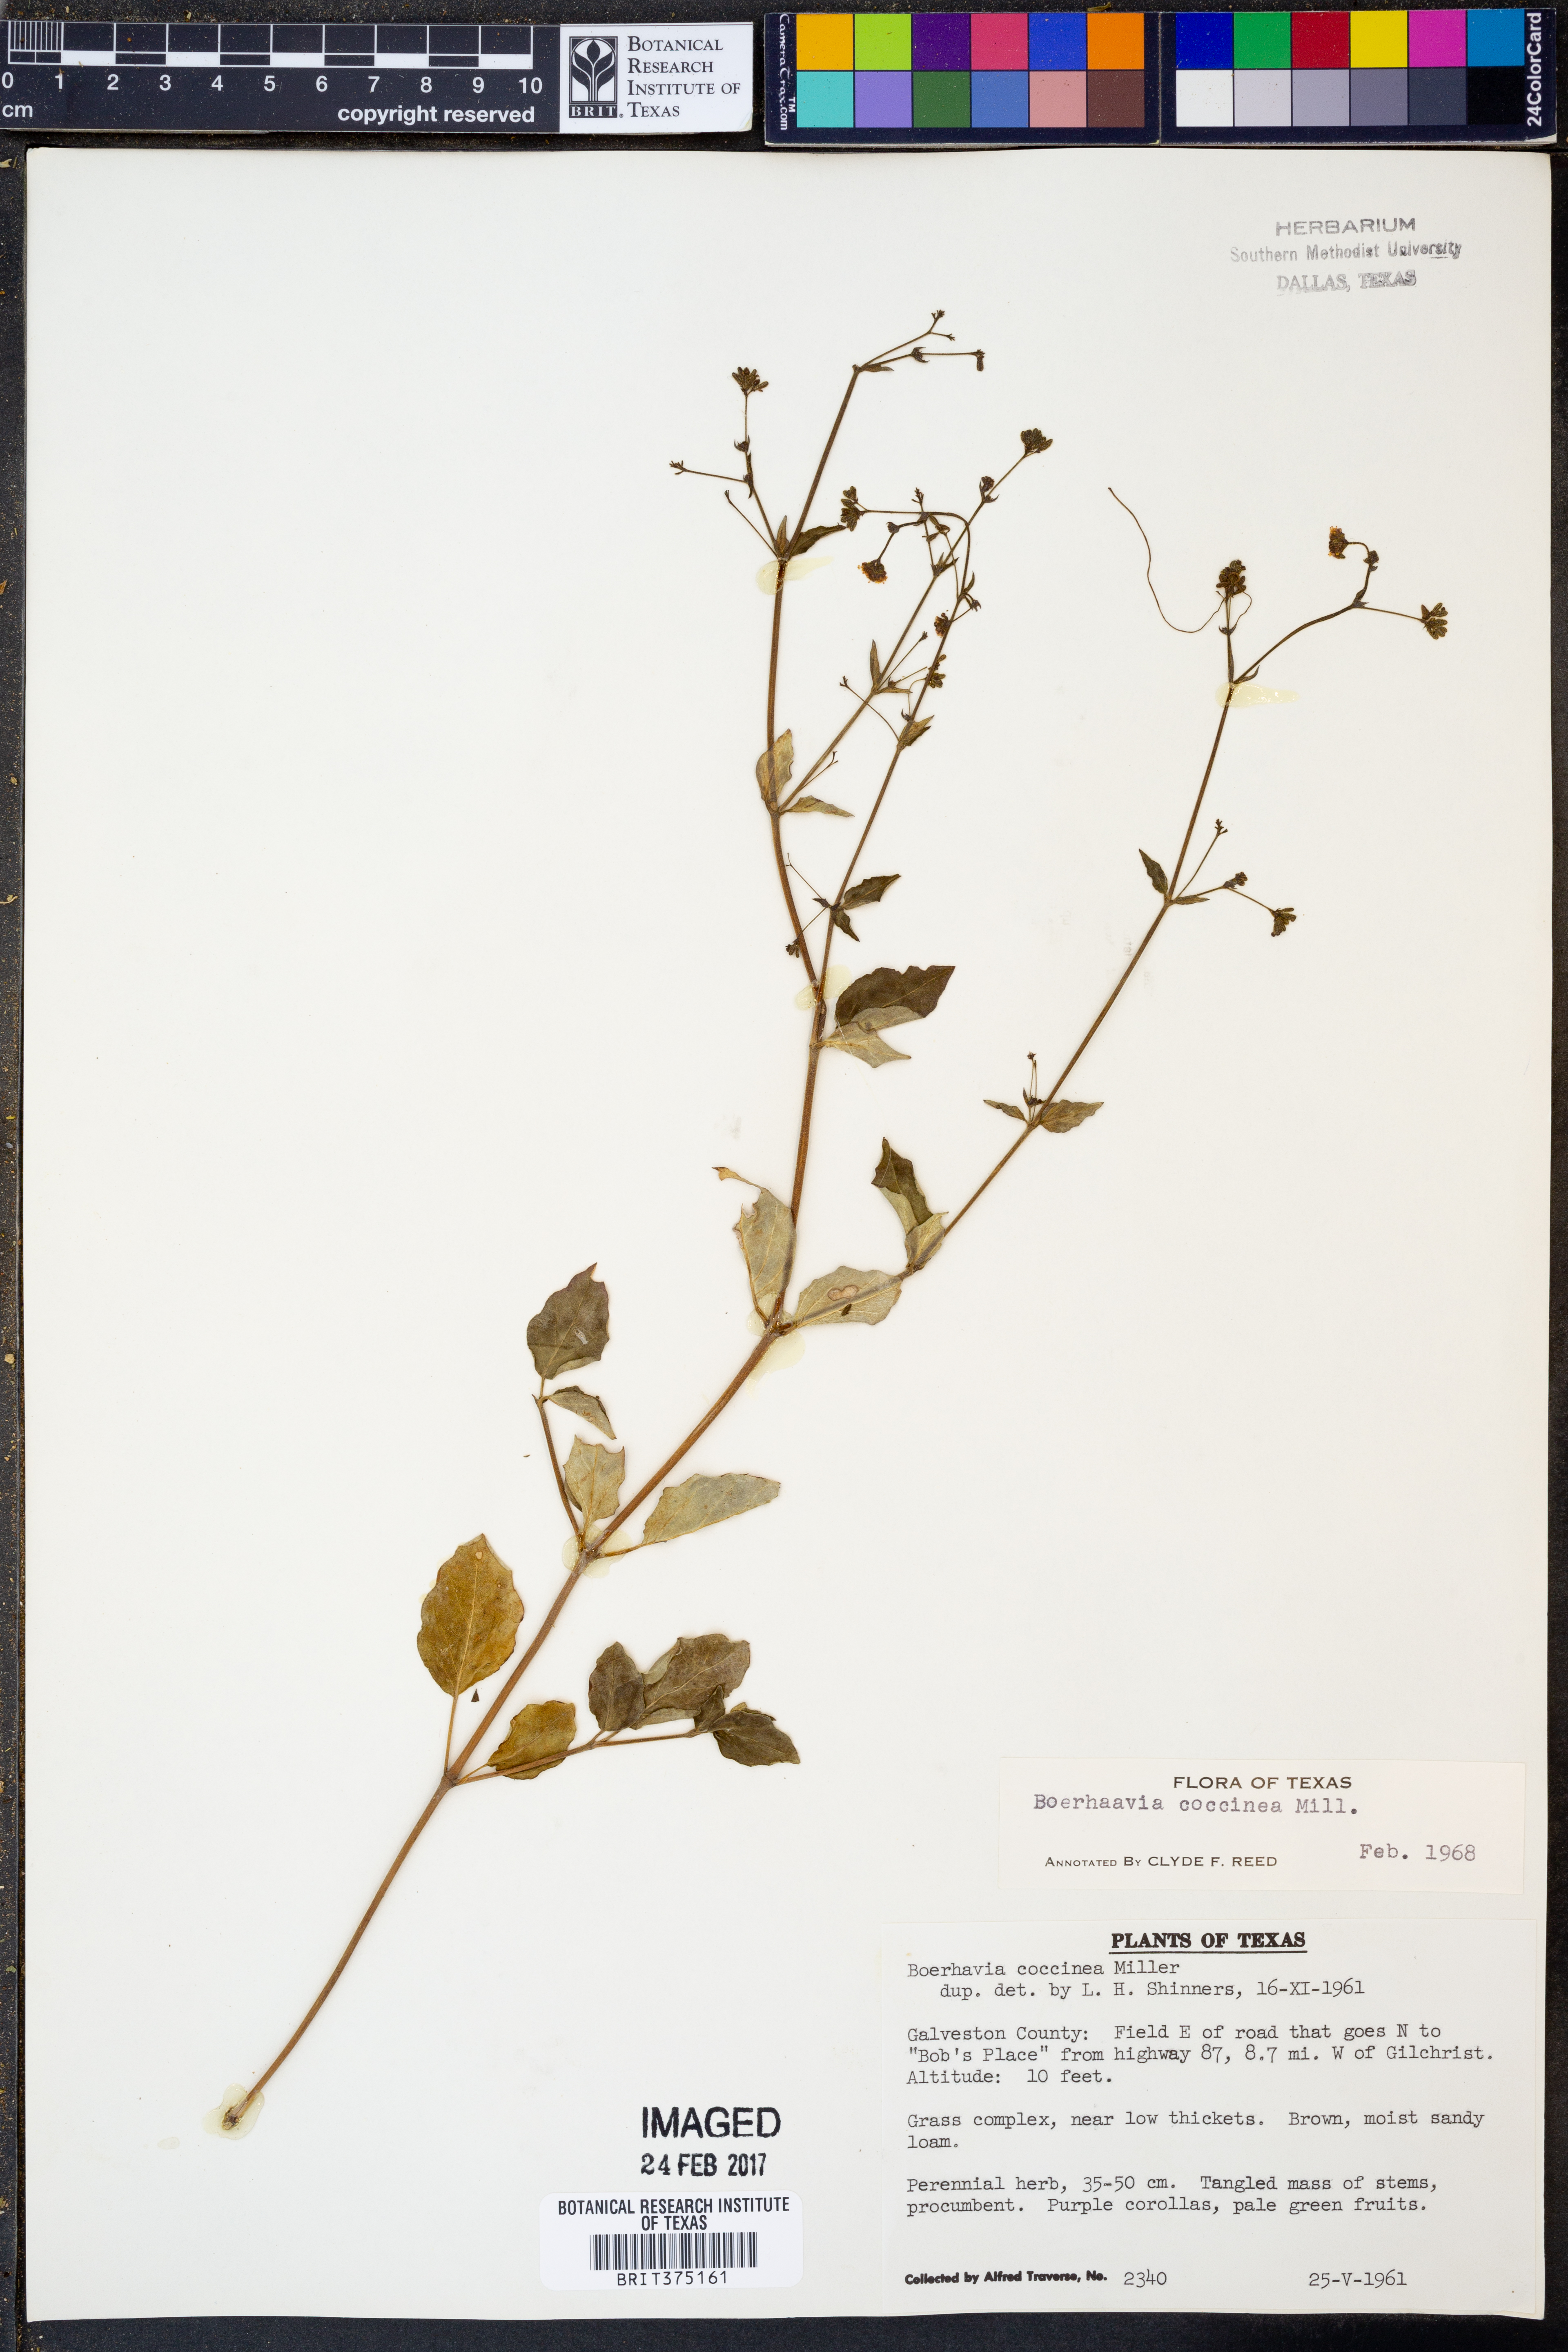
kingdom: Plantae
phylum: Tracheophyta
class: Magnoliopsida
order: Caryophyllales
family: Nyctaginaceae
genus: Boerhavia
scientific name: Boerhavia coccinea
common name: Scarlet spiderling
